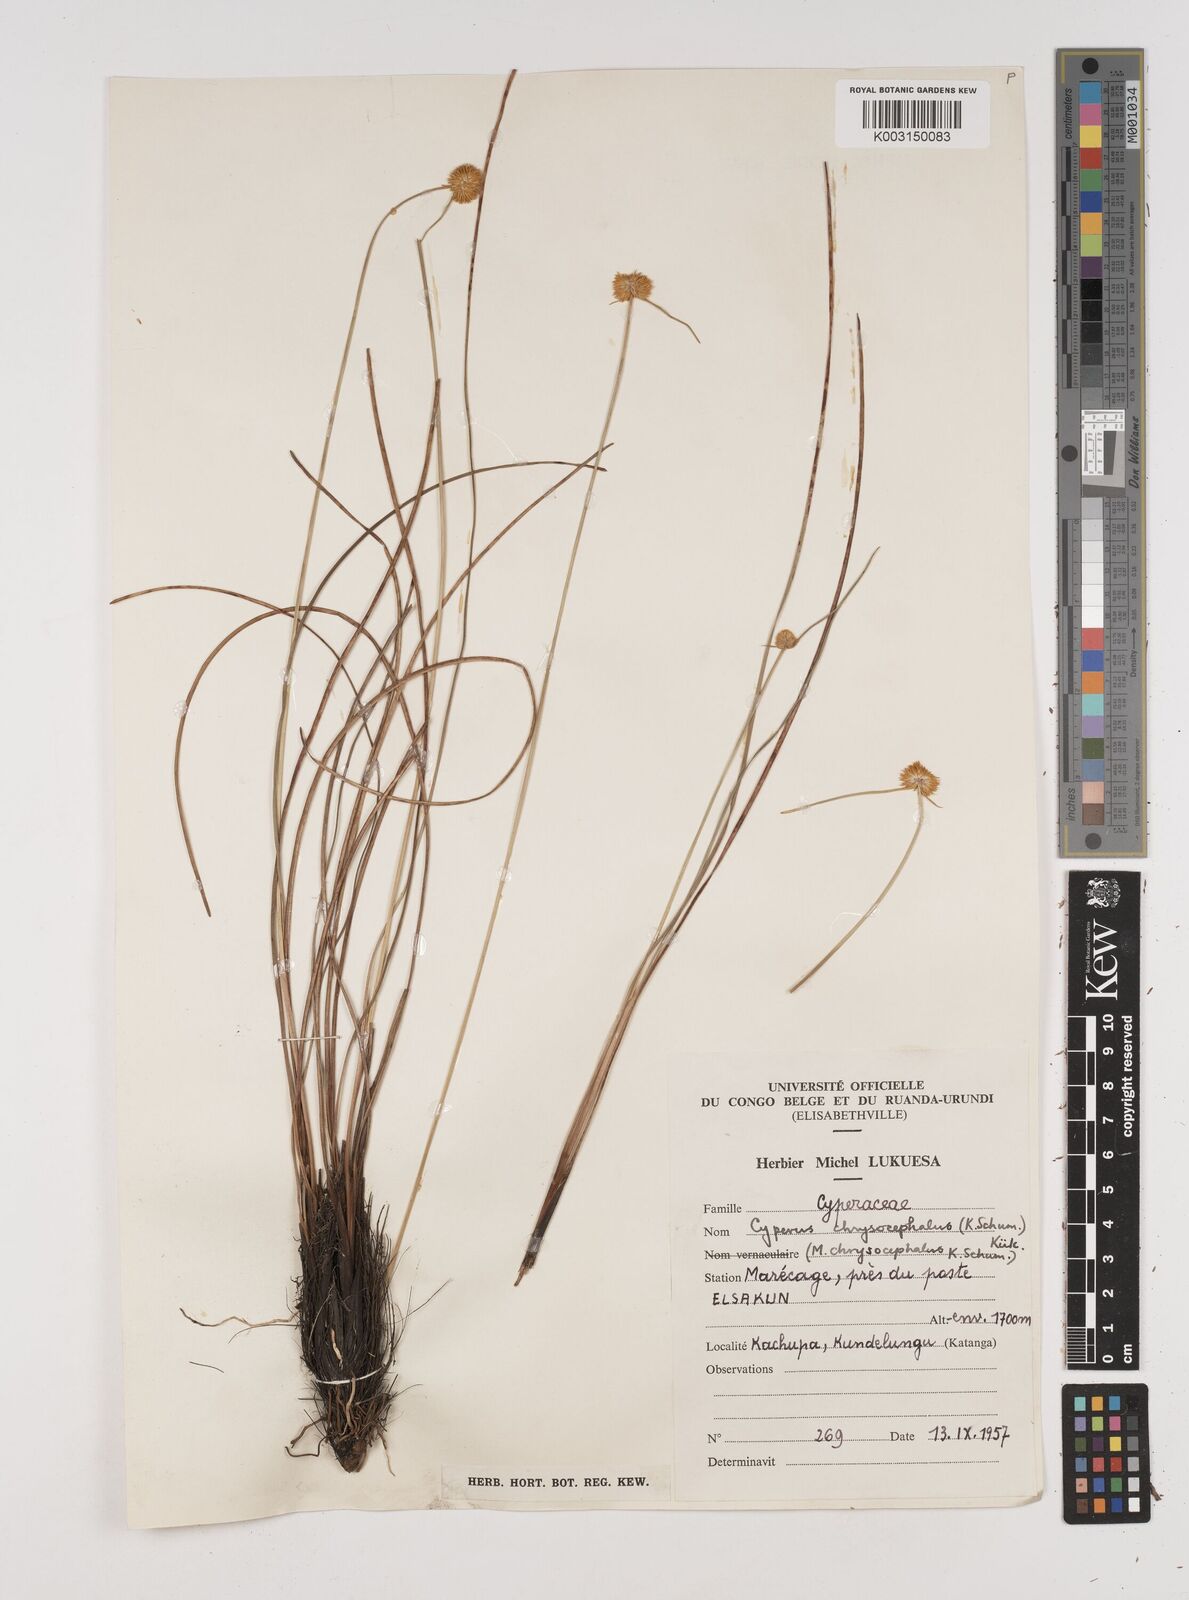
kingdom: Plantae
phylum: Tracheophyta
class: Liliopsida
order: Poales
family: Cyperaceae
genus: Cyperus
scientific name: Cyperus chrysocephalus
